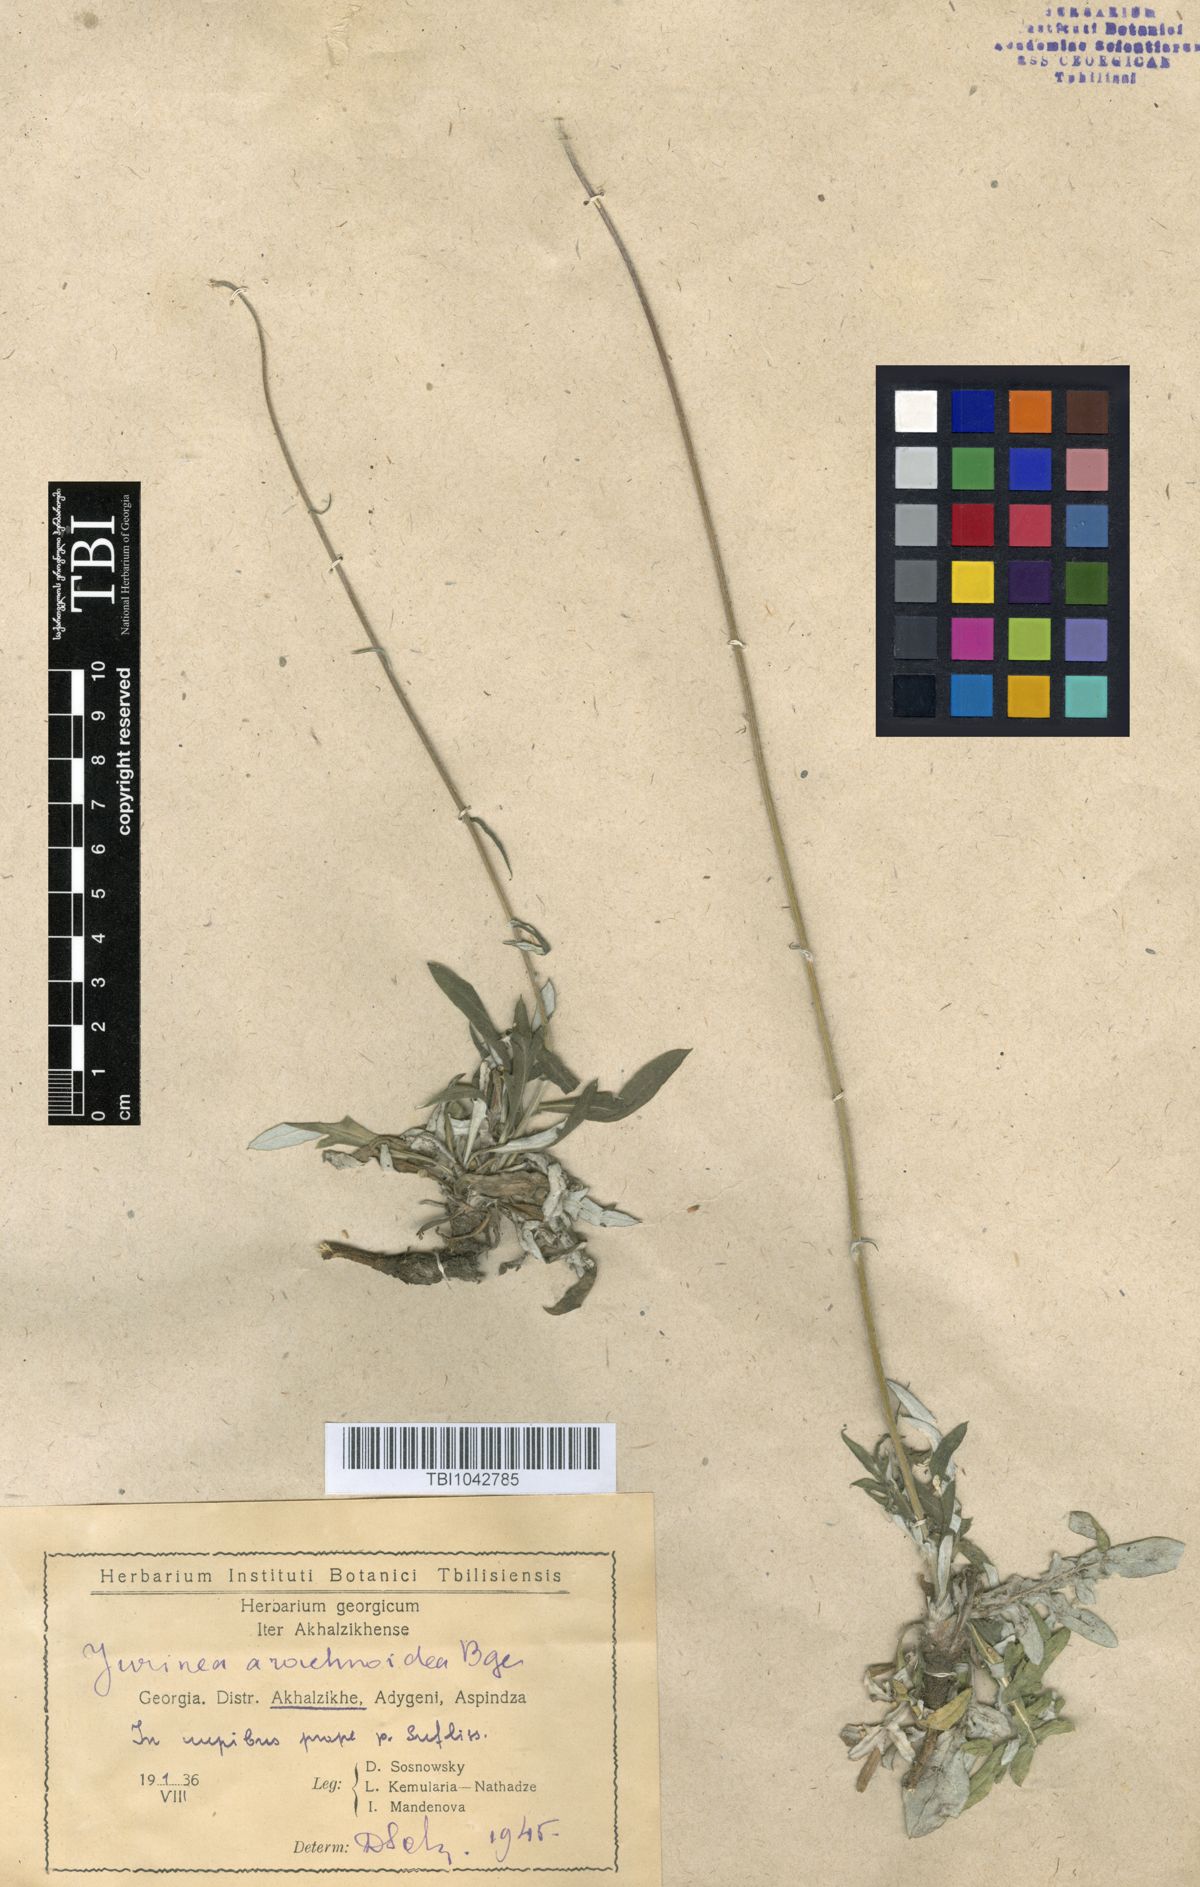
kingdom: Plantae
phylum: Tracheophyta
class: Magnoliopsida
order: Asterales
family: Asteraceae
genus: Jurinea
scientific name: Jurinea blanda
